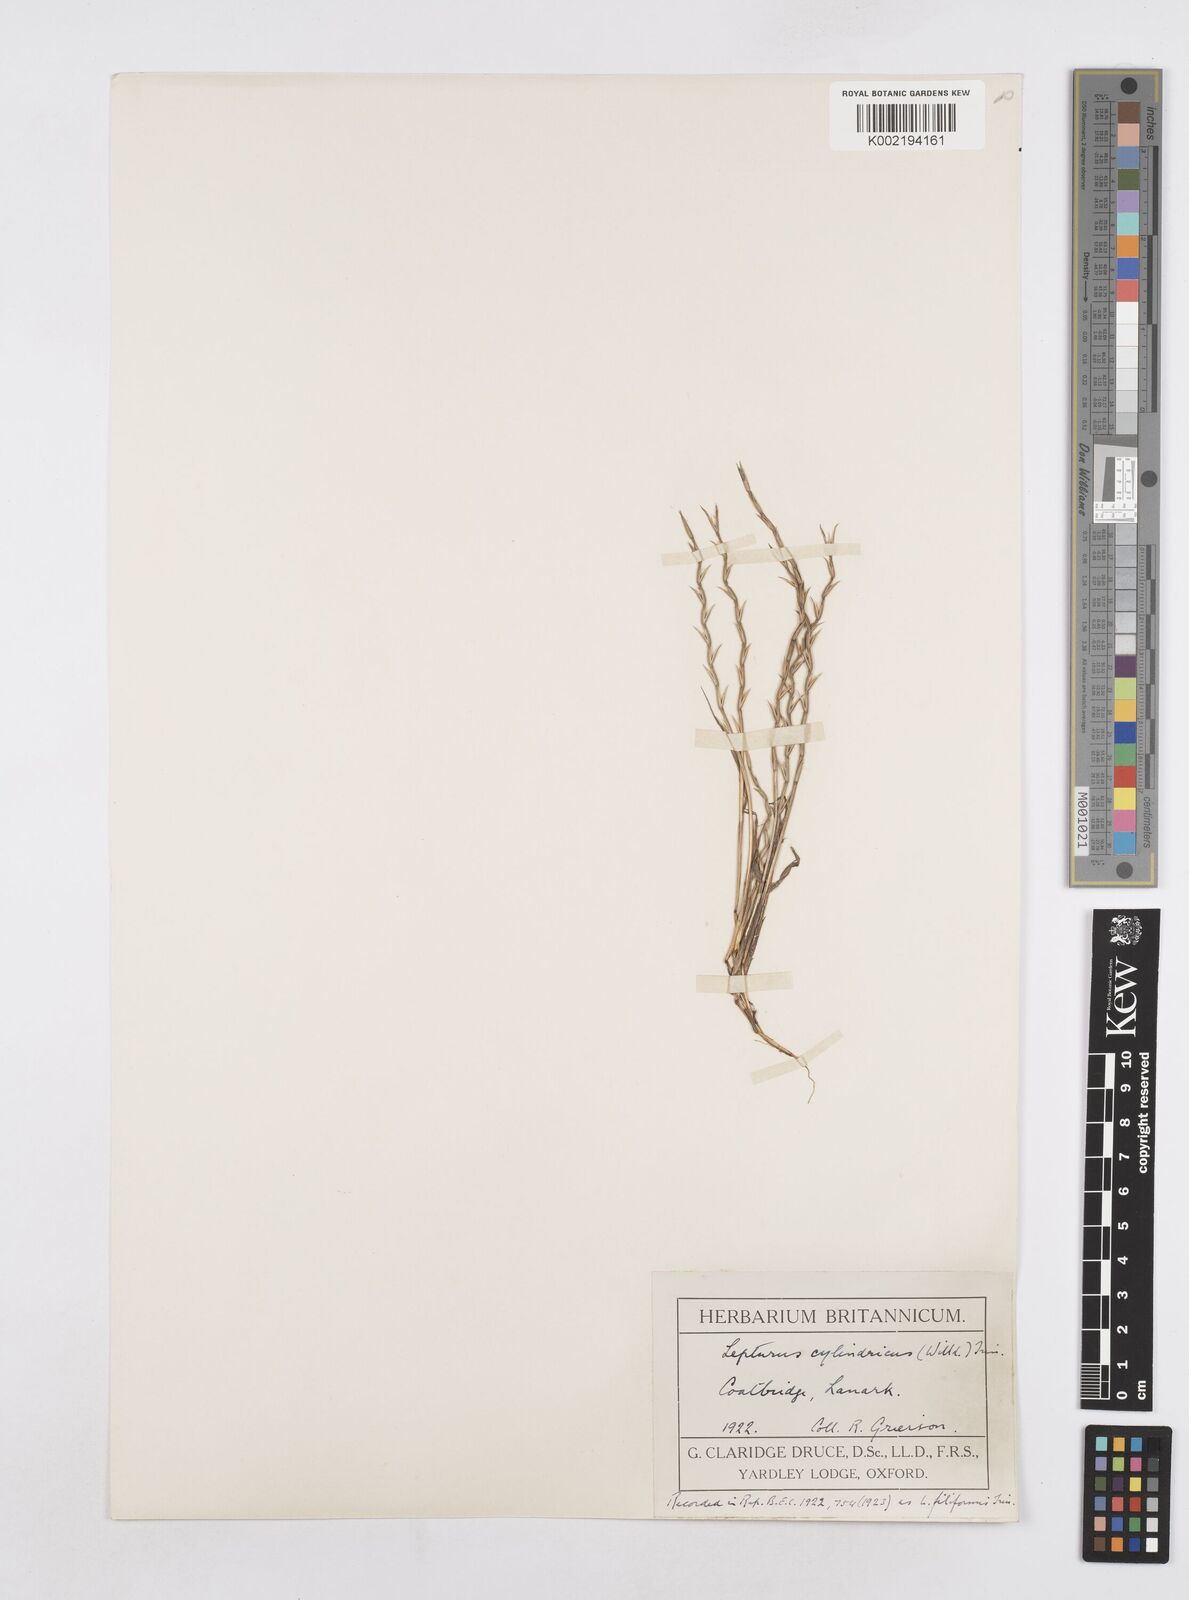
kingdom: Plantae
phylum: Tracheophyta
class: Liliopsida
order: Poales
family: Poaceae
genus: Parapholis
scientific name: Parapholis cylindrica
